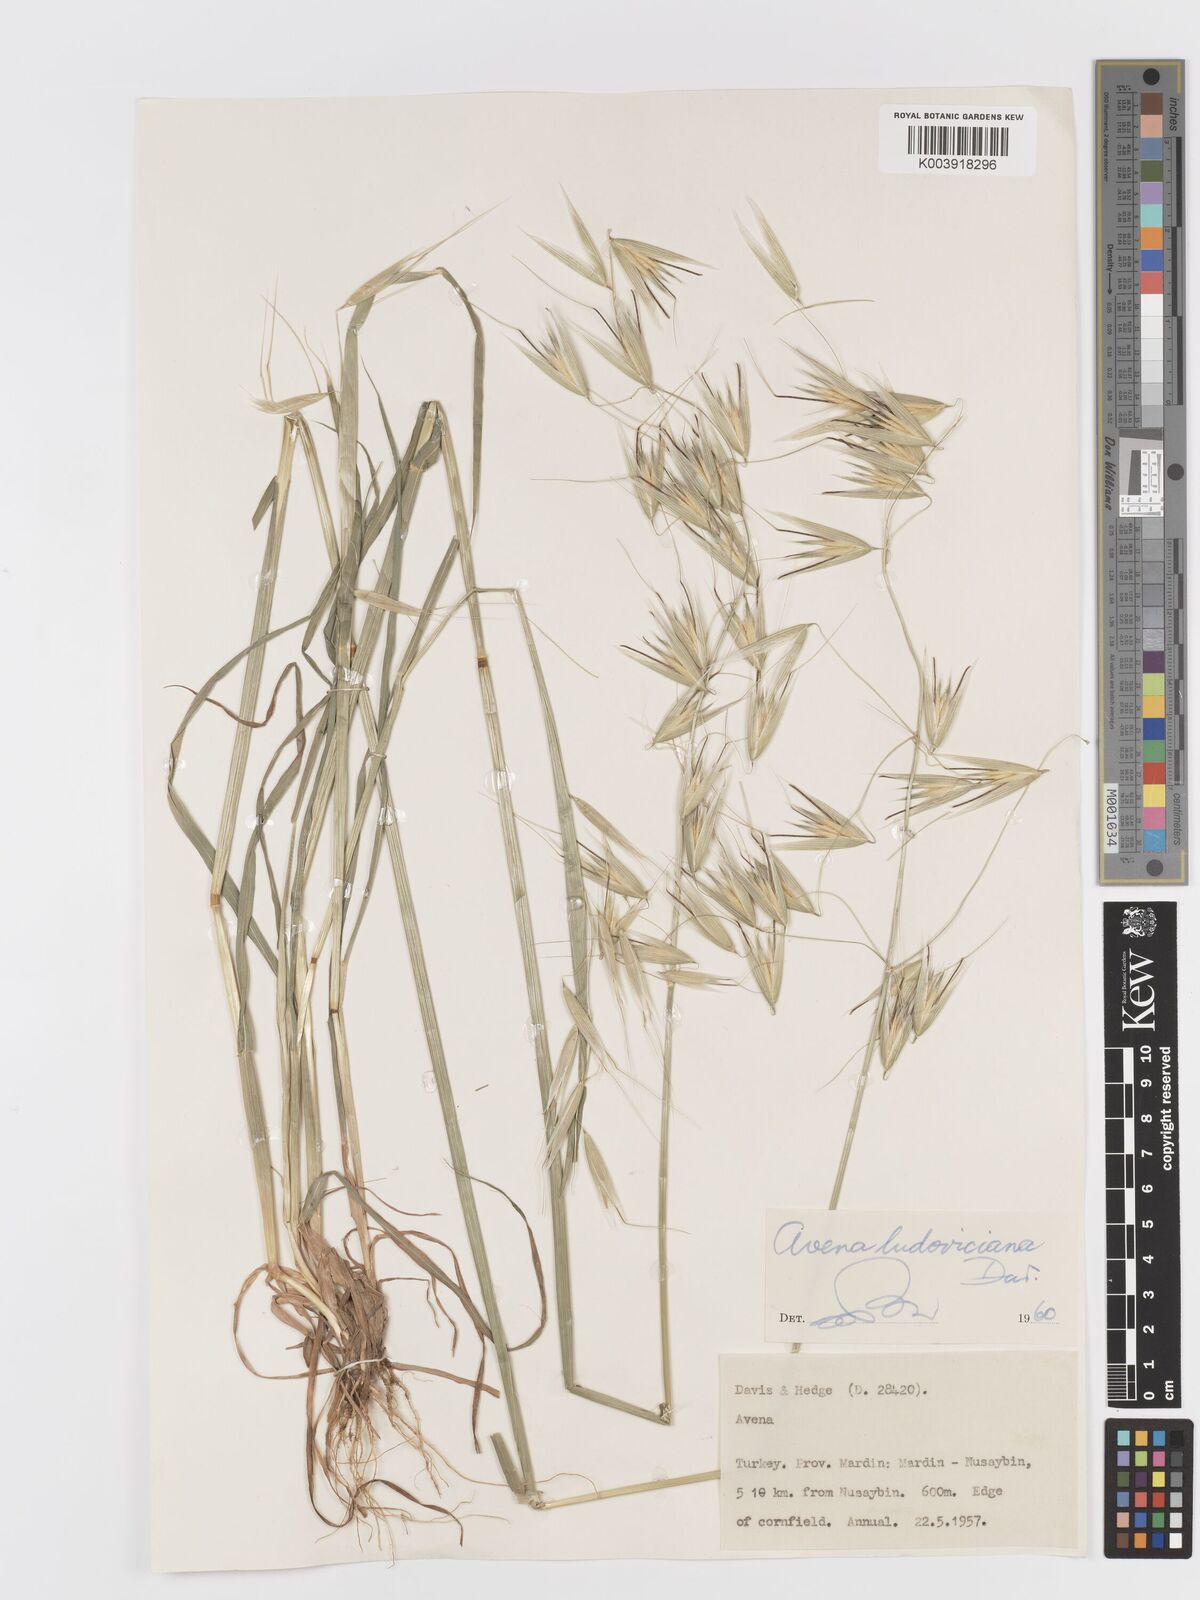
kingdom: Plantae
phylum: Tracheophyta
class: Liliopsida
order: Poales
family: Poaceae
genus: Avena
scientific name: Avena sterilis
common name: Animated oat
